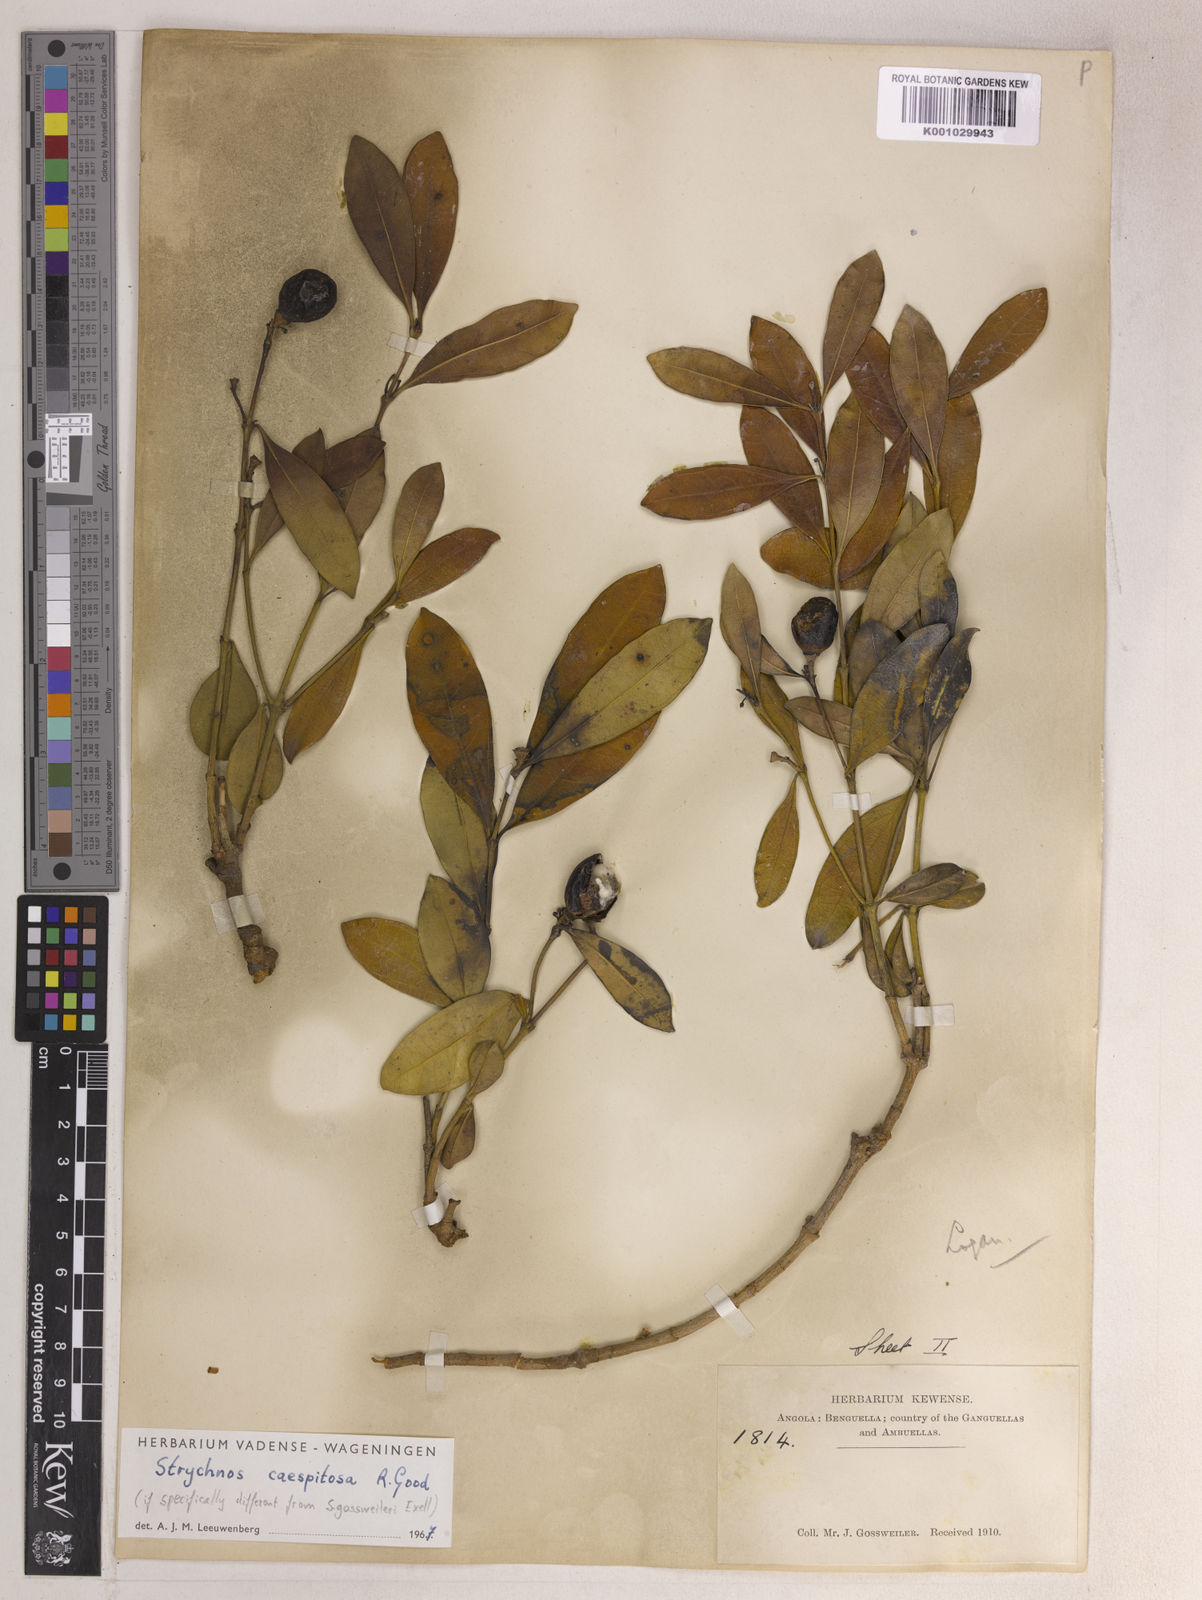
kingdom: Plantae
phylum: Tracheophyta
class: Magnoliopsida
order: Gentianales
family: Loganiaceae
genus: Strychnos
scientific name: Strychnos gossweileri
